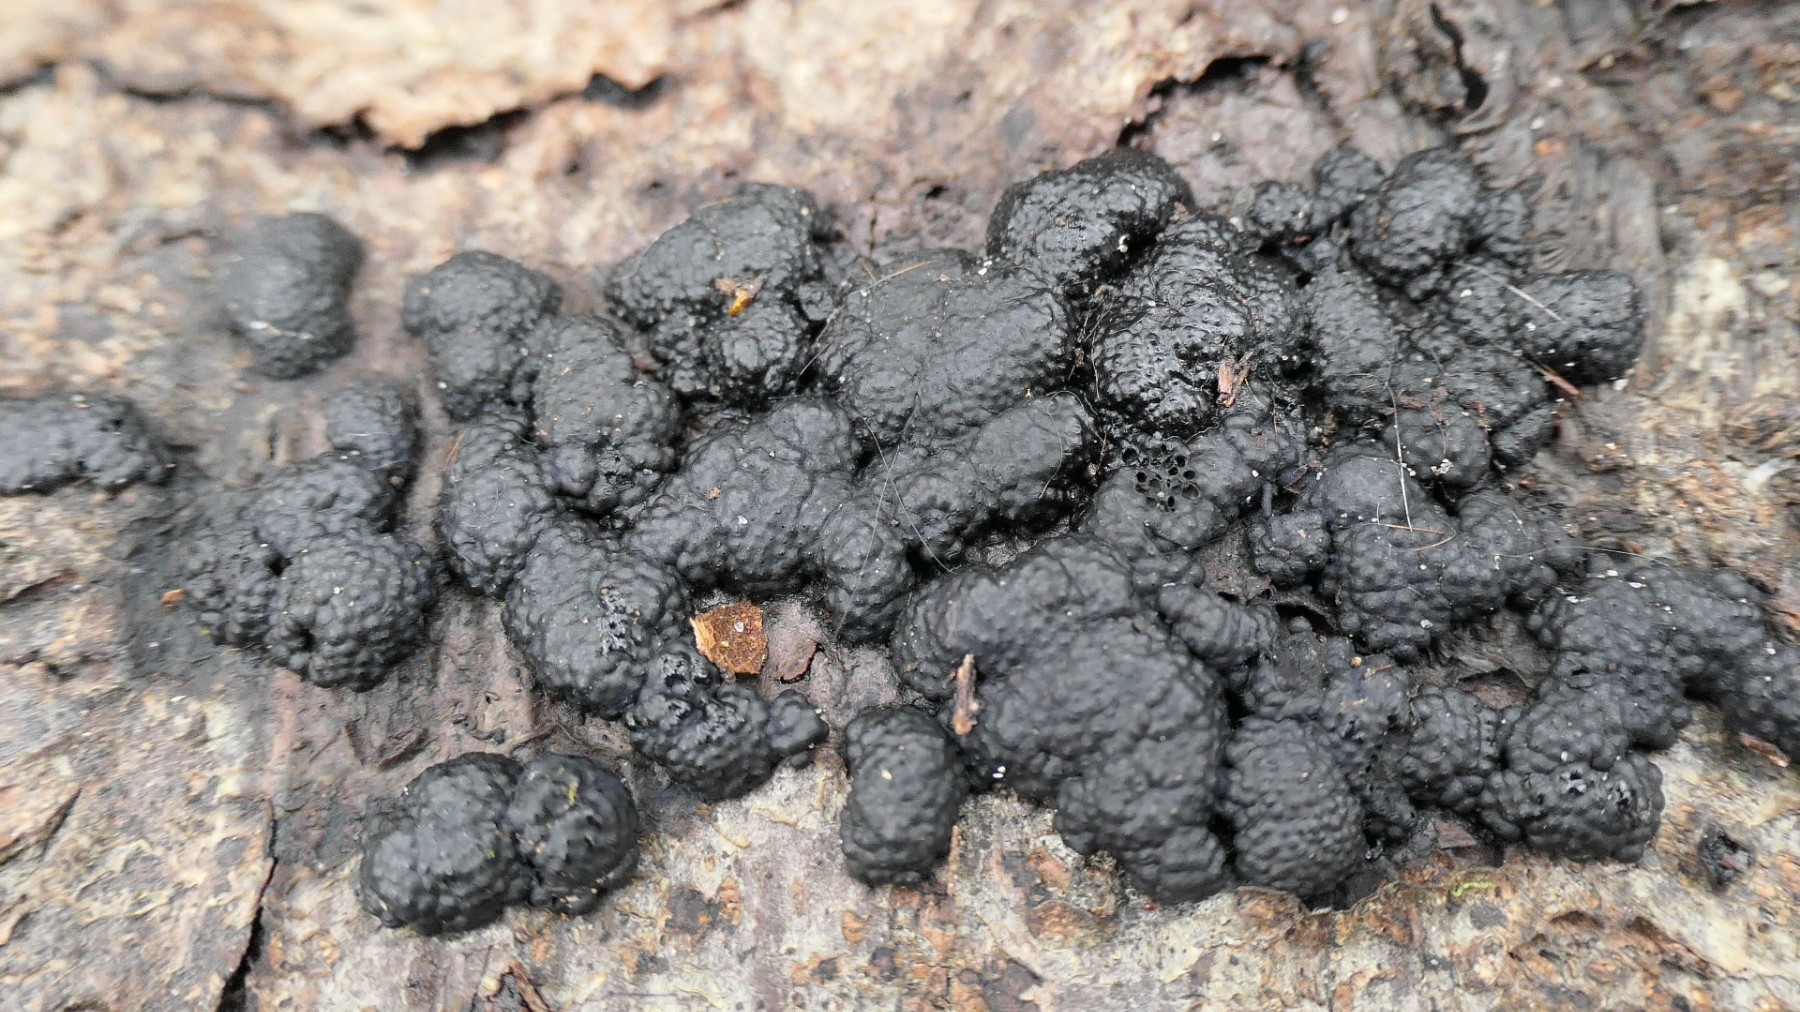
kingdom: Fungi
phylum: Ascomycota
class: Sordariomycetes
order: Xylariales
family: Hypoxylaceae
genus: Jackrogersella
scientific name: Jackrogersella cohaerens
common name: sammenflydende kulbær
